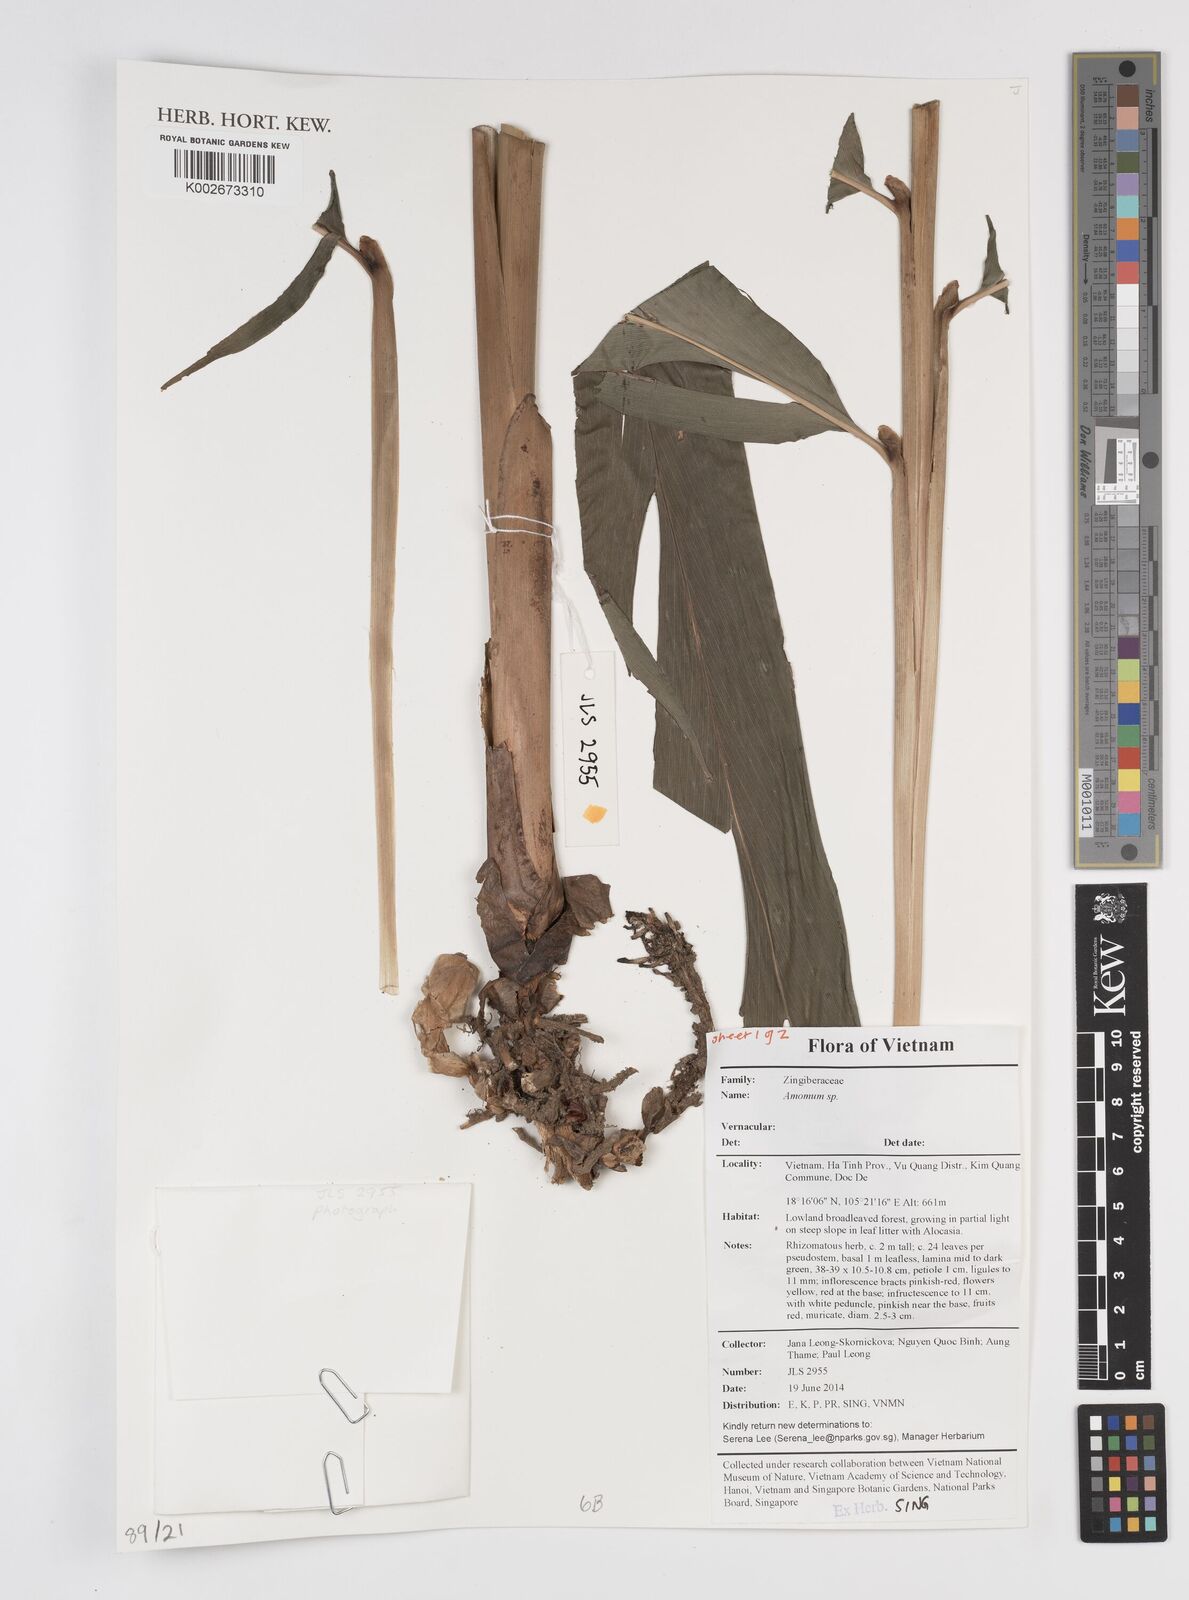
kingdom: Plantae
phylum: Tracheophyta
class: Liliopsida
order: Zingiberales
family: Zingiberaceae
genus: Amomum
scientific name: Amomum
